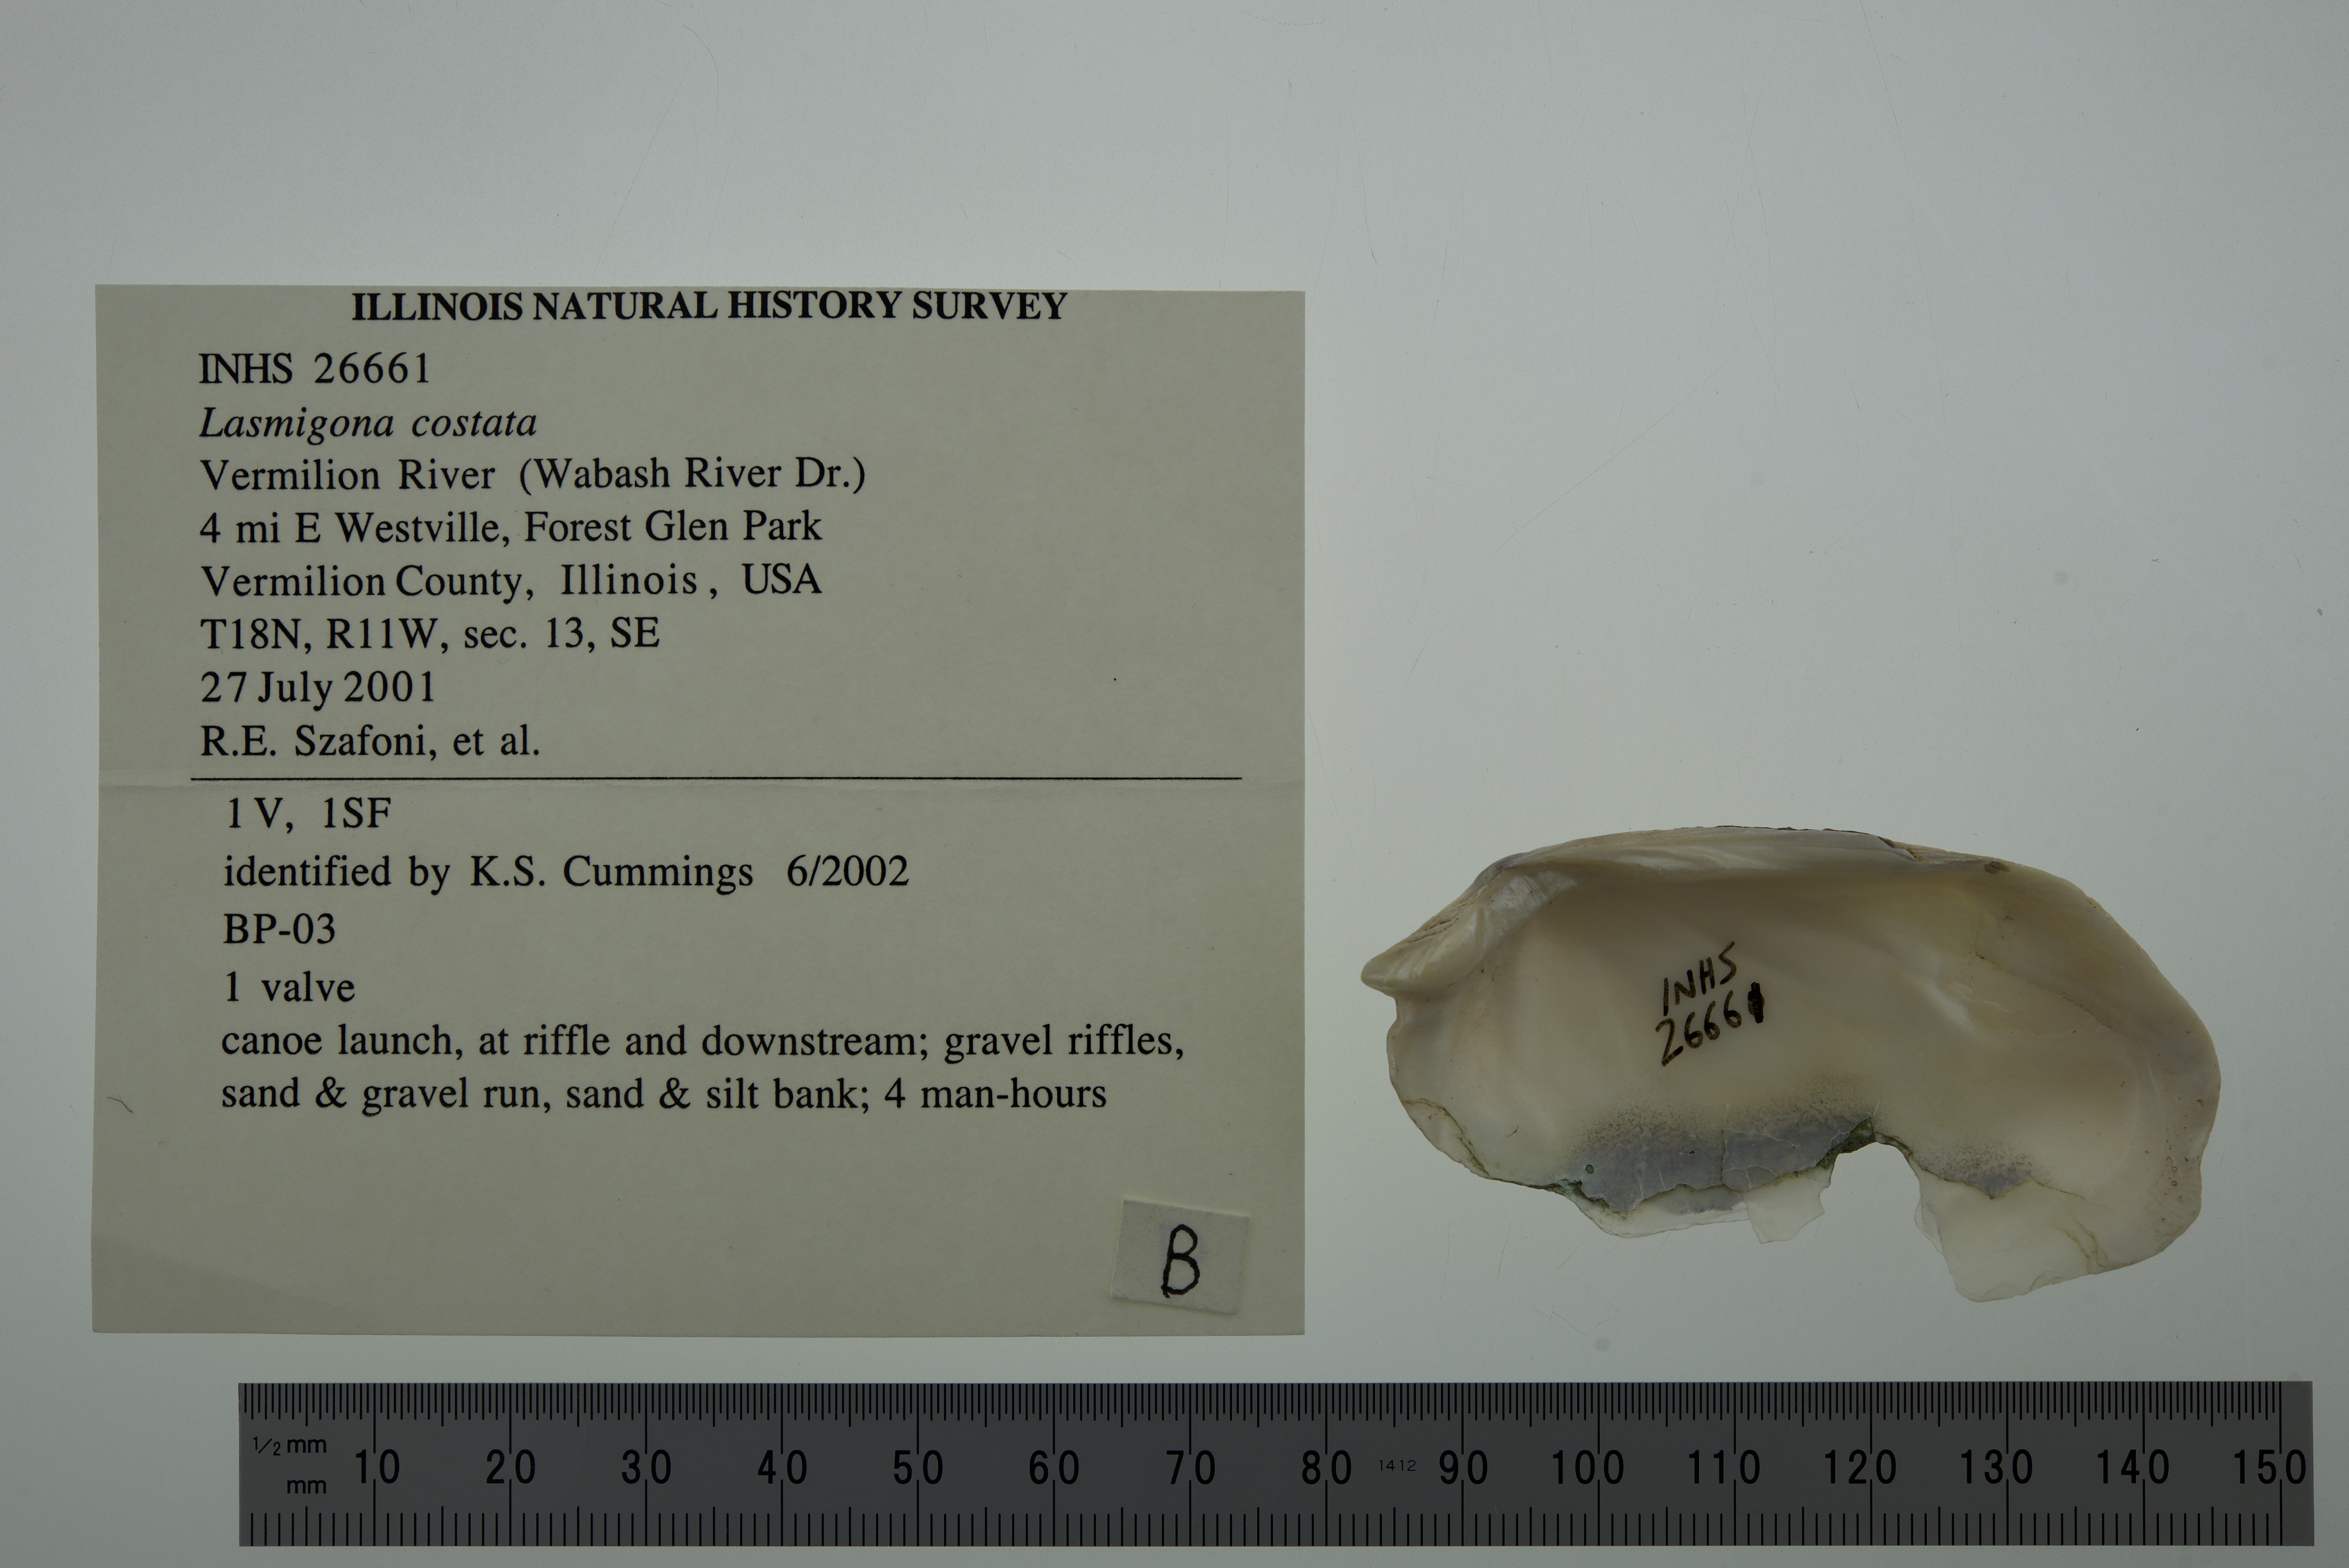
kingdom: Animalia
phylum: Mollusca
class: Bivalvia
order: Unionida
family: Unionidae
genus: Lasmigona
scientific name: Lasmigona costata
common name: Flutedshell
